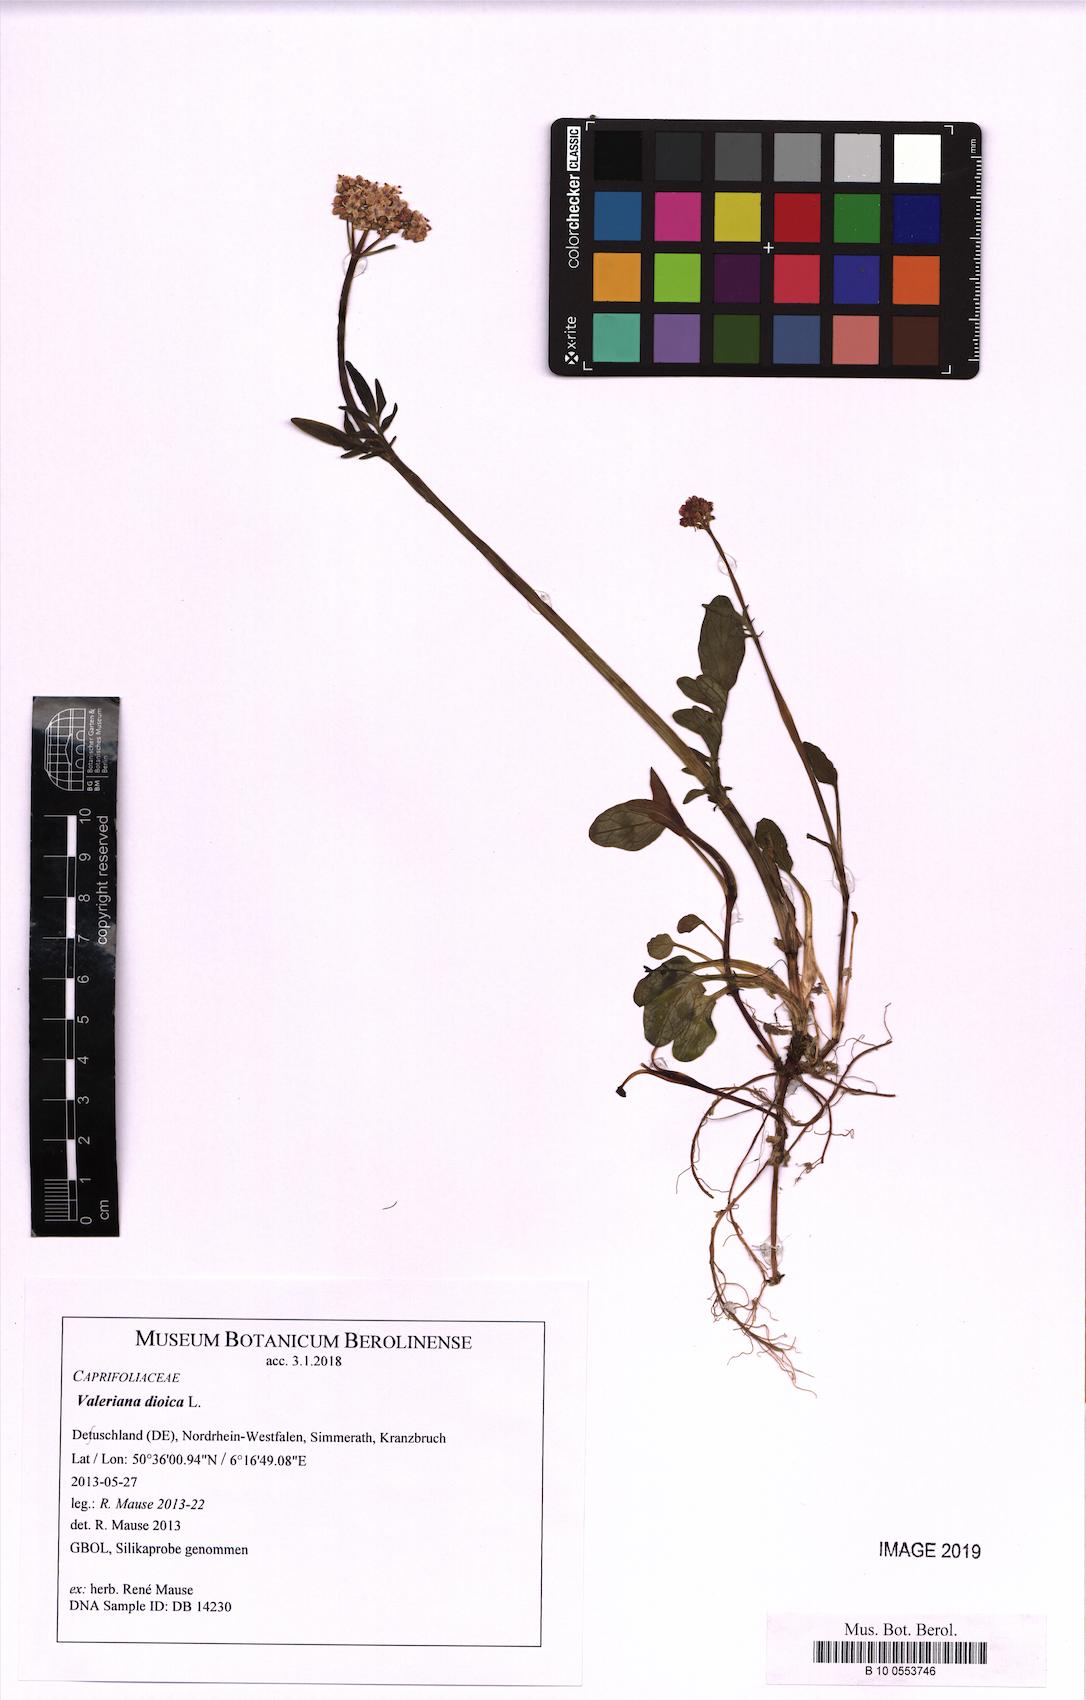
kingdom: Plantae
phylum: Tracheophyta
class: Magnoliopsida
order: Dipsacales
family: Caprifoliaceae
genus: Valeriana
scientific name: Valeriana dioica
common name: Marsh valerian
